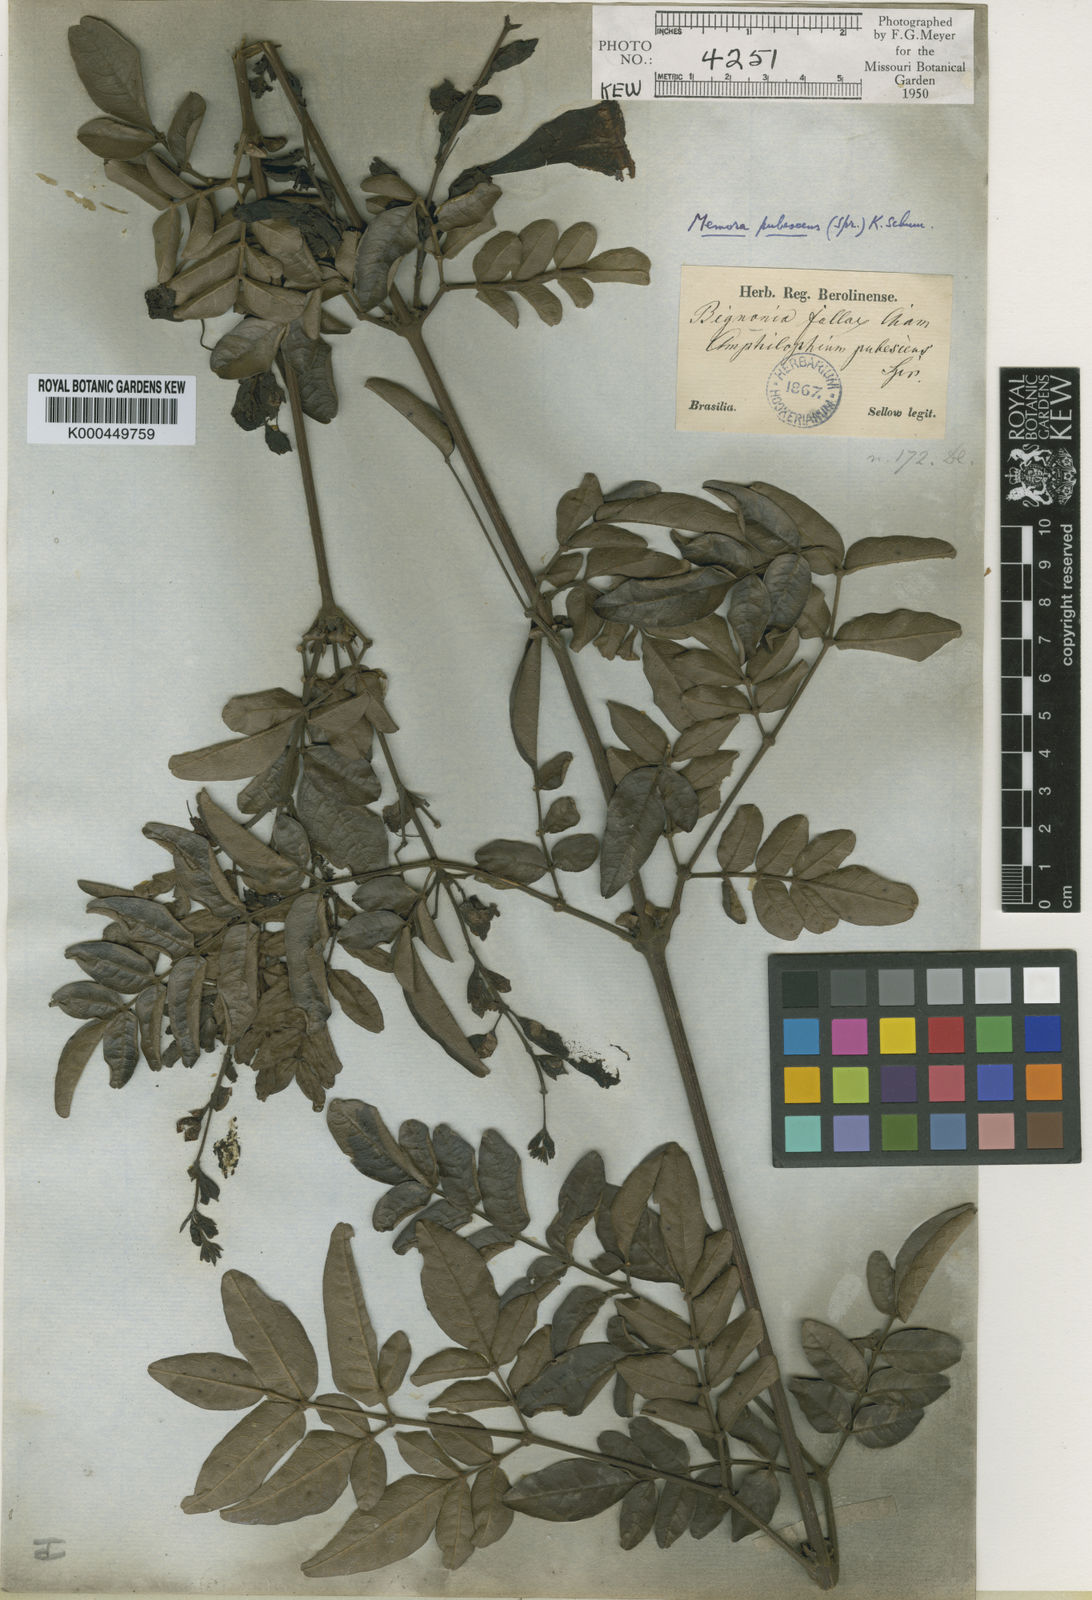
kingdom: Plantae
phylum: Tracheophyta
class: Magnoliopsida
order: Lamiales
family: Bignoniaceae
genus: Adenocalymma
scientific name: Adenocalymma pubescens
